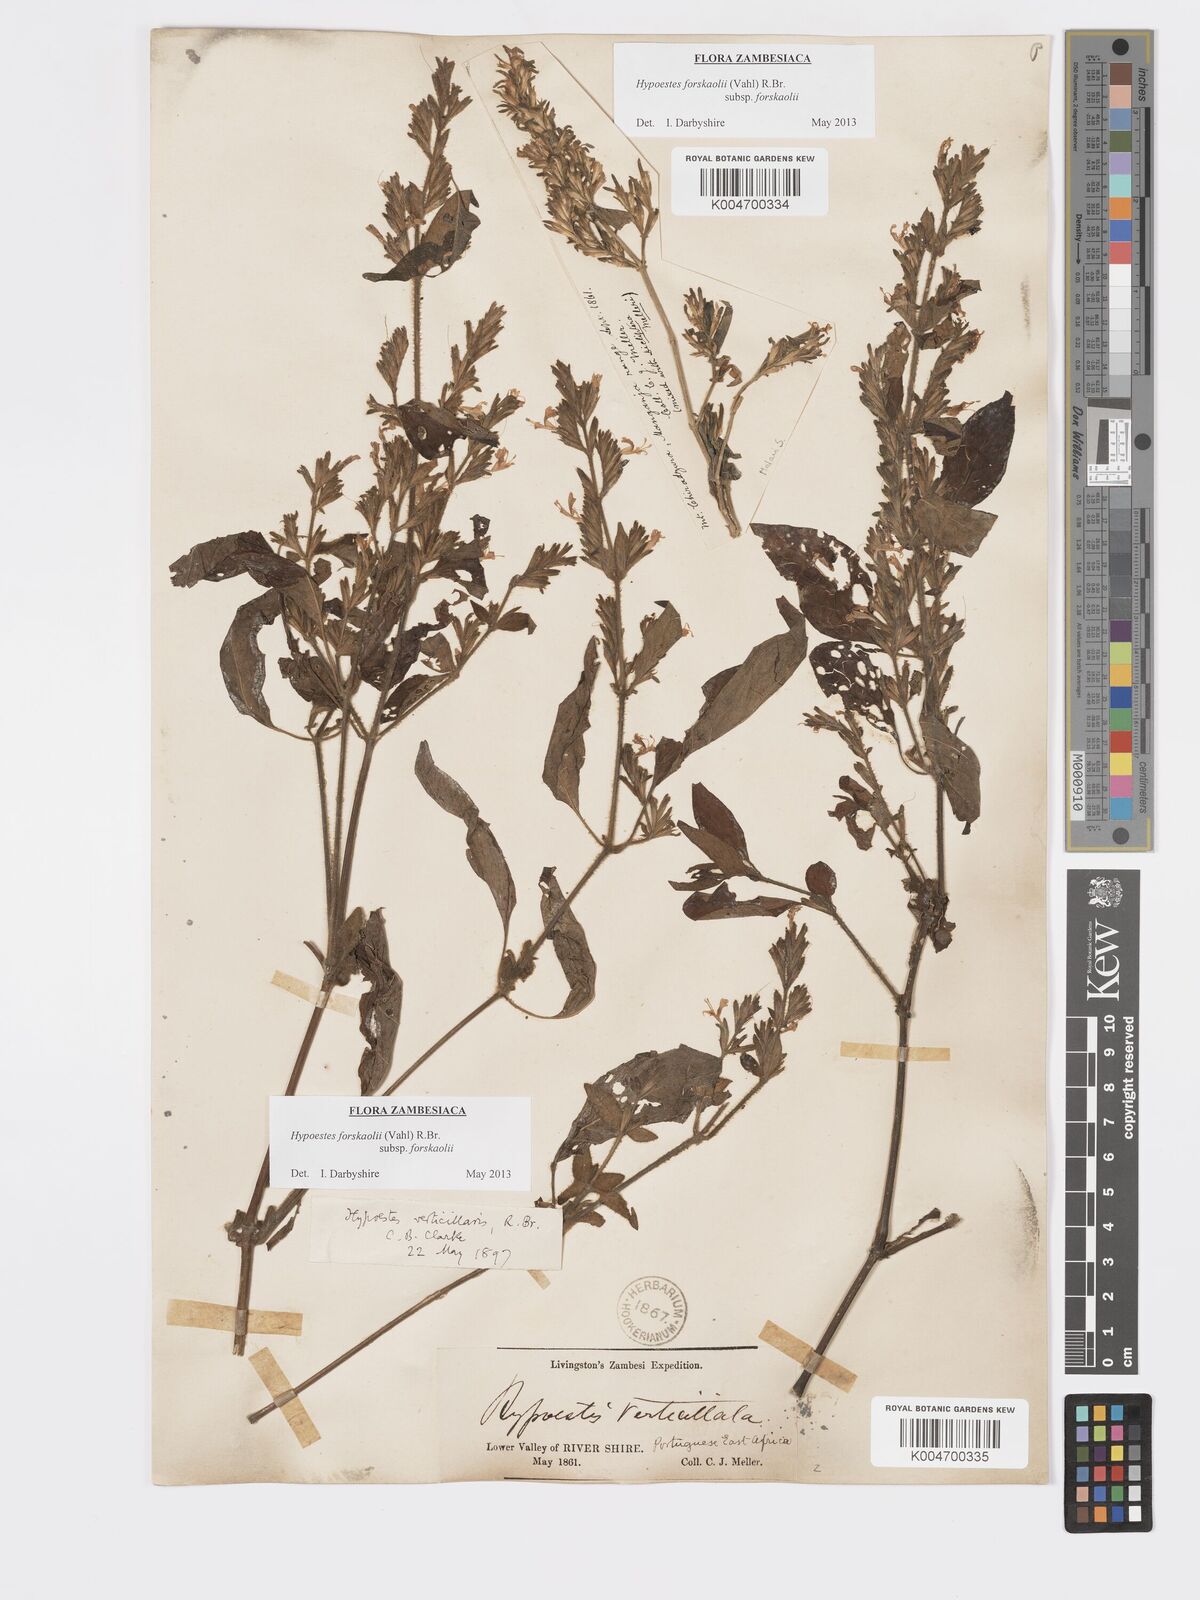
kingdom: Plantae
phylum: Tracheophyta
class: Magnoliopsida
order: Lamiales
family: Acanthaceae
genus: Hypoestes
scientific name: Hypoestes forskaolii
